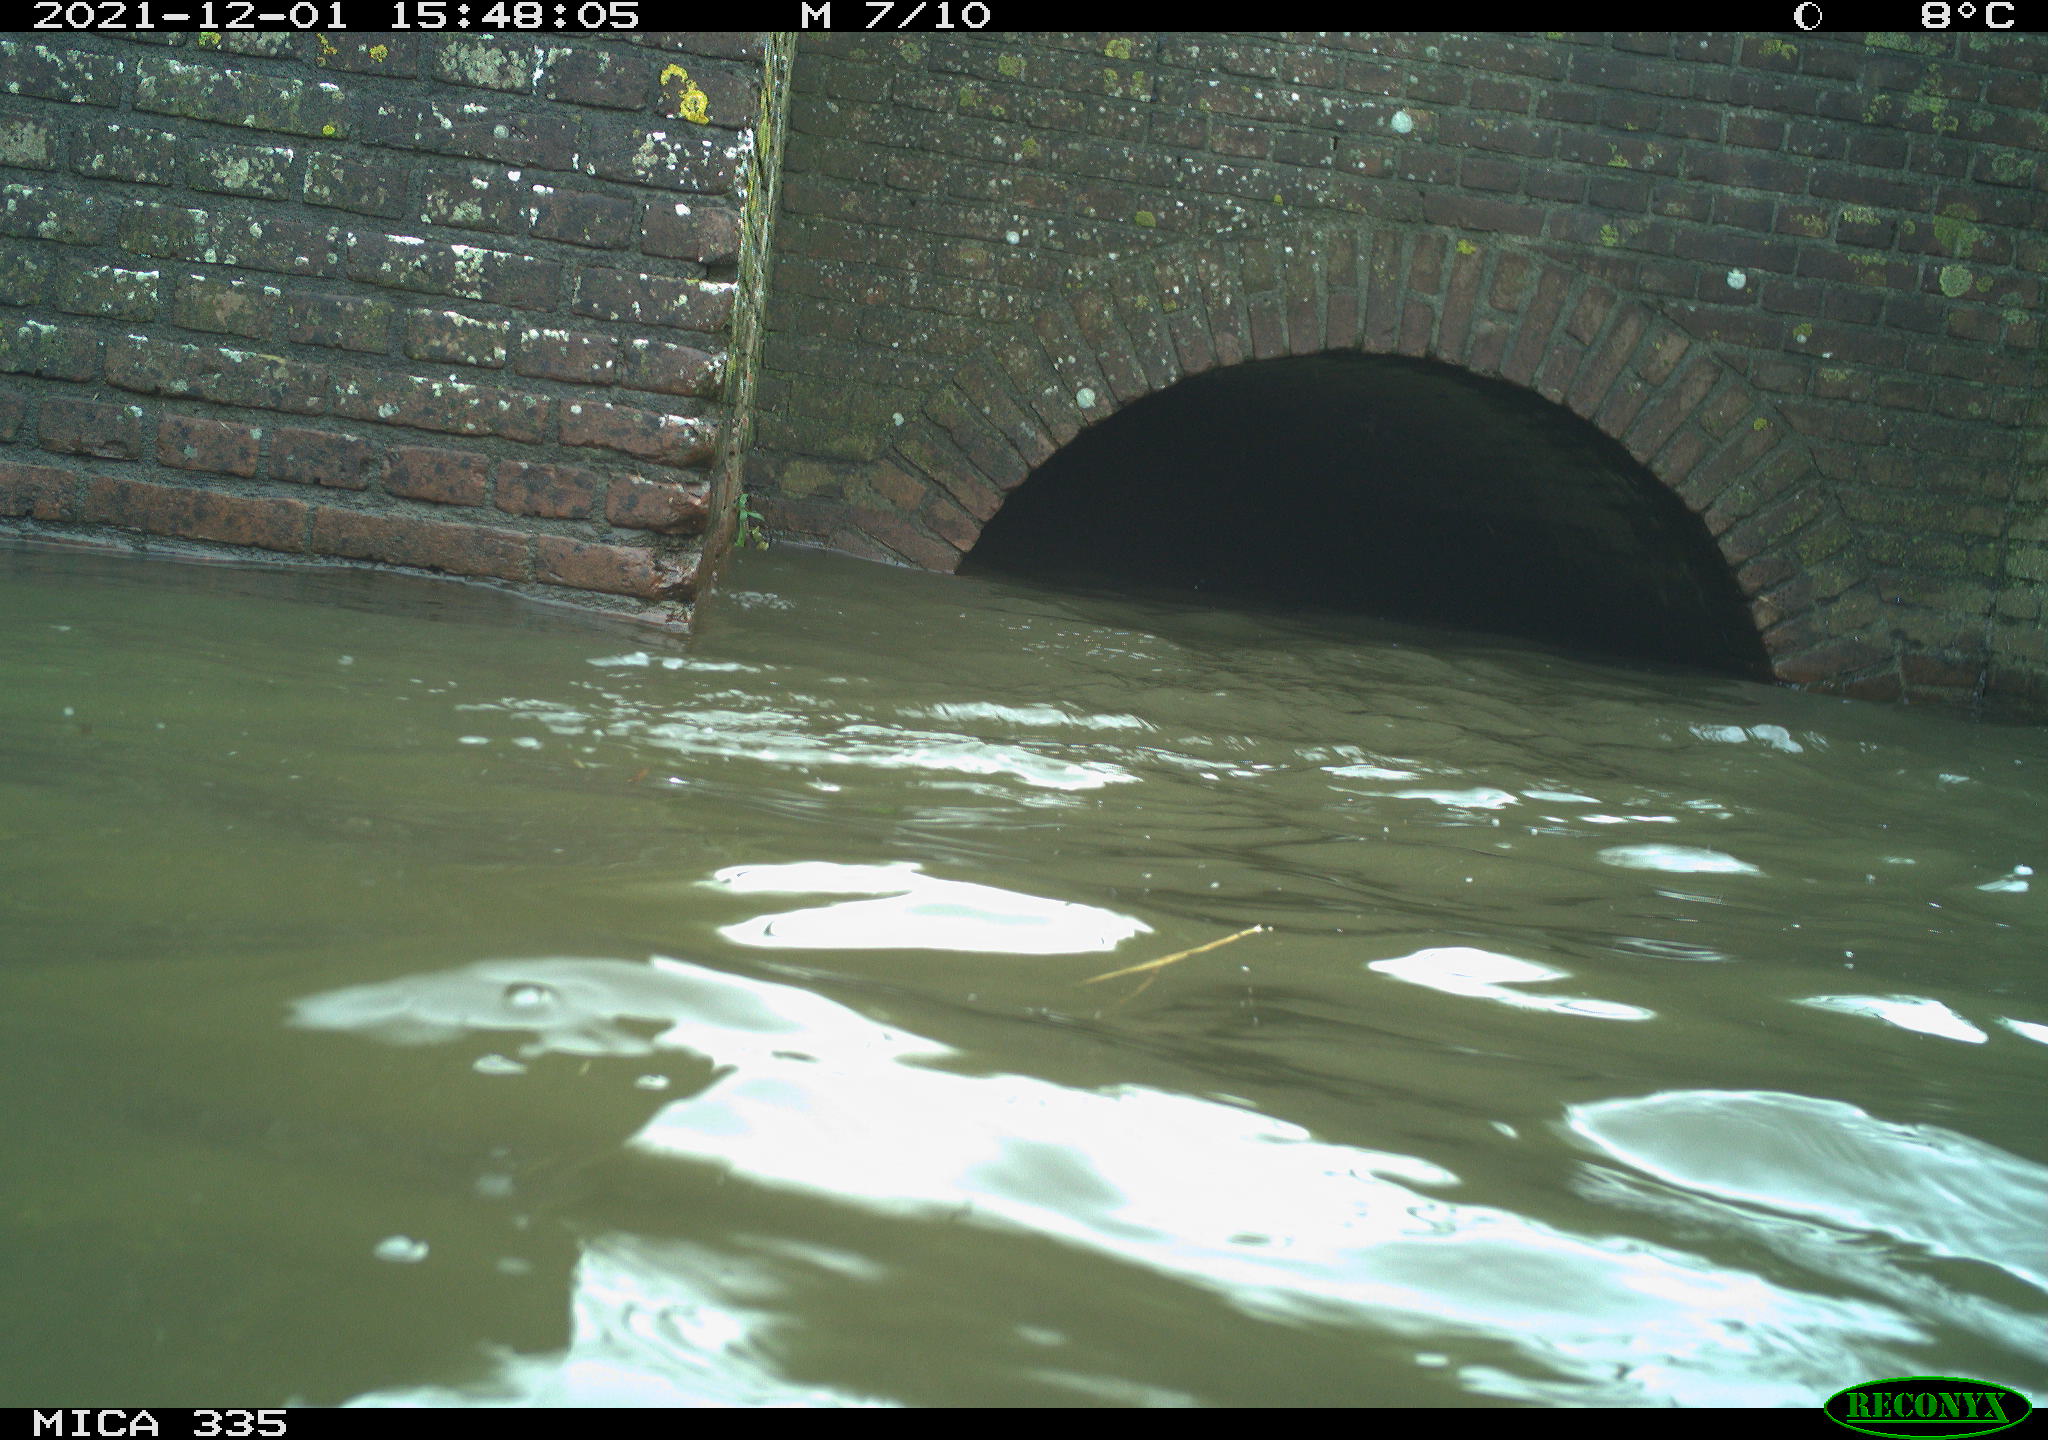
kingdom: Animalia
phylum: Chordata
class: Aves
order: Suliformes
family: Phalacrocoracidae
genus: Phalacrocorax
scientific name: Phalacrocorax carbo
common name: Great cormorant
